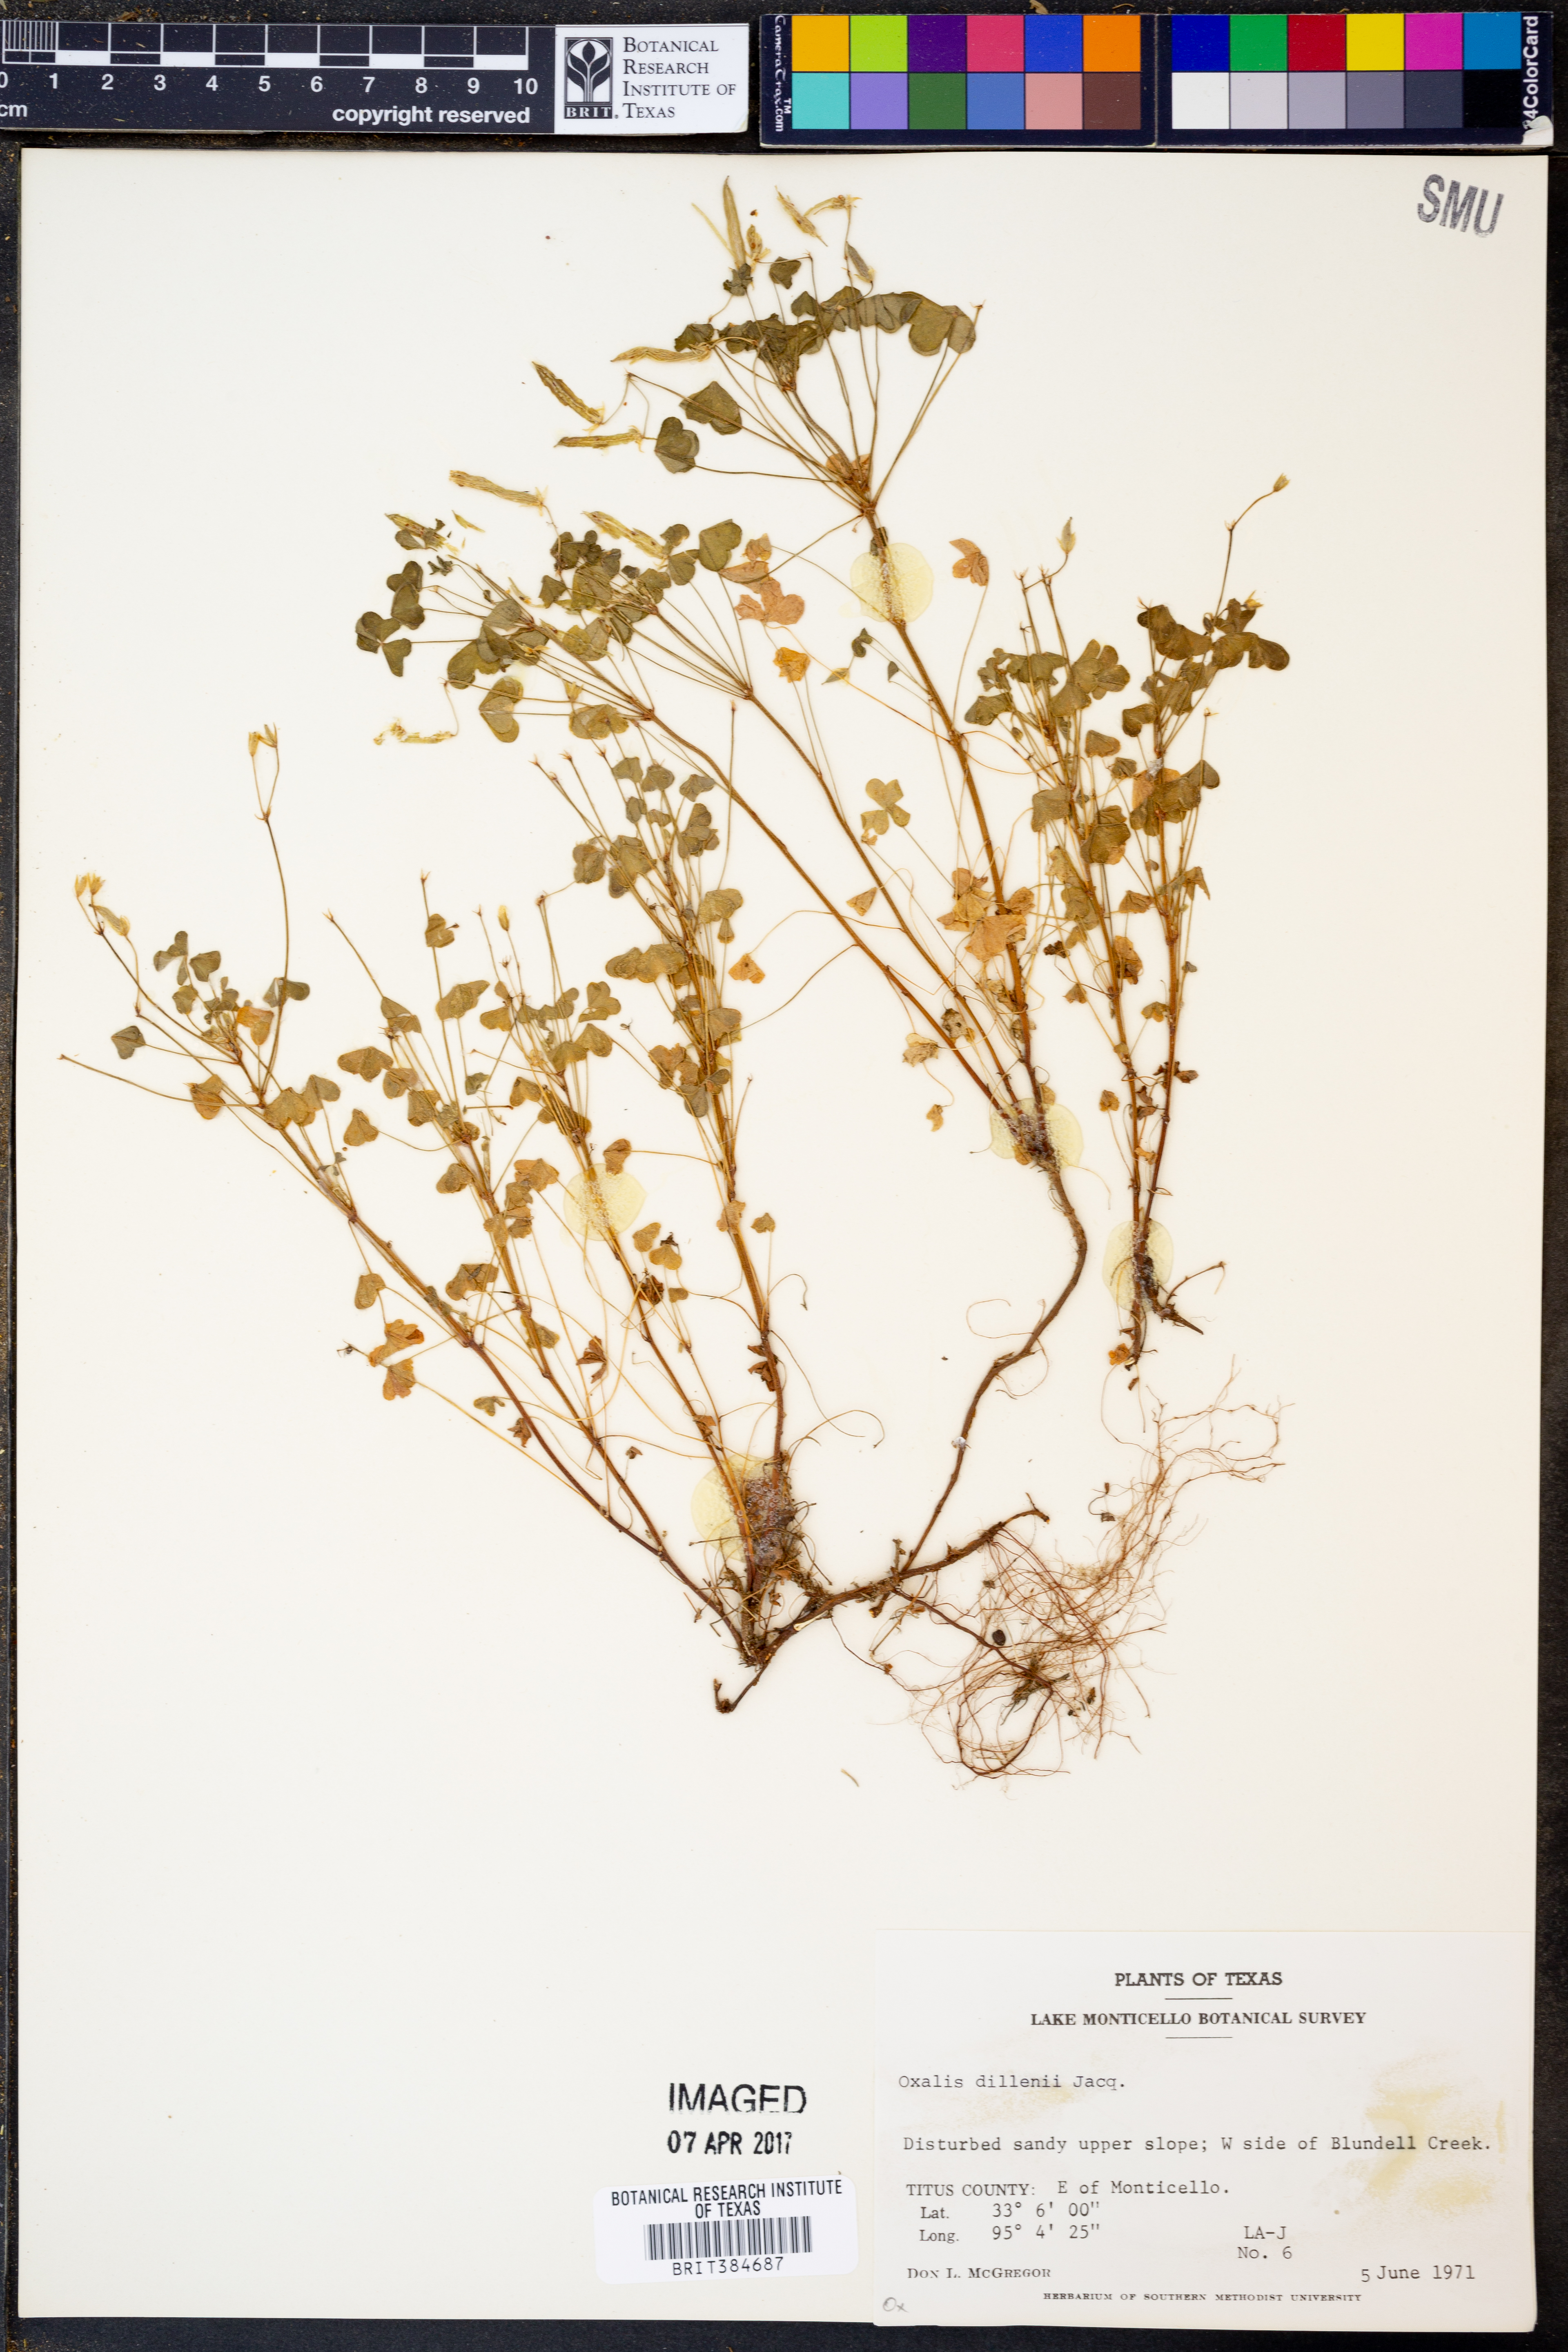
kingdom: Plantae
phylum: Tracheophyta
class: Magnoliopsida
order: Oxalidales
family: Oxalidaceae
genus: Oxalis
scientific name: Oxalis dillenii
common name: Sussex yellow-sorrel
